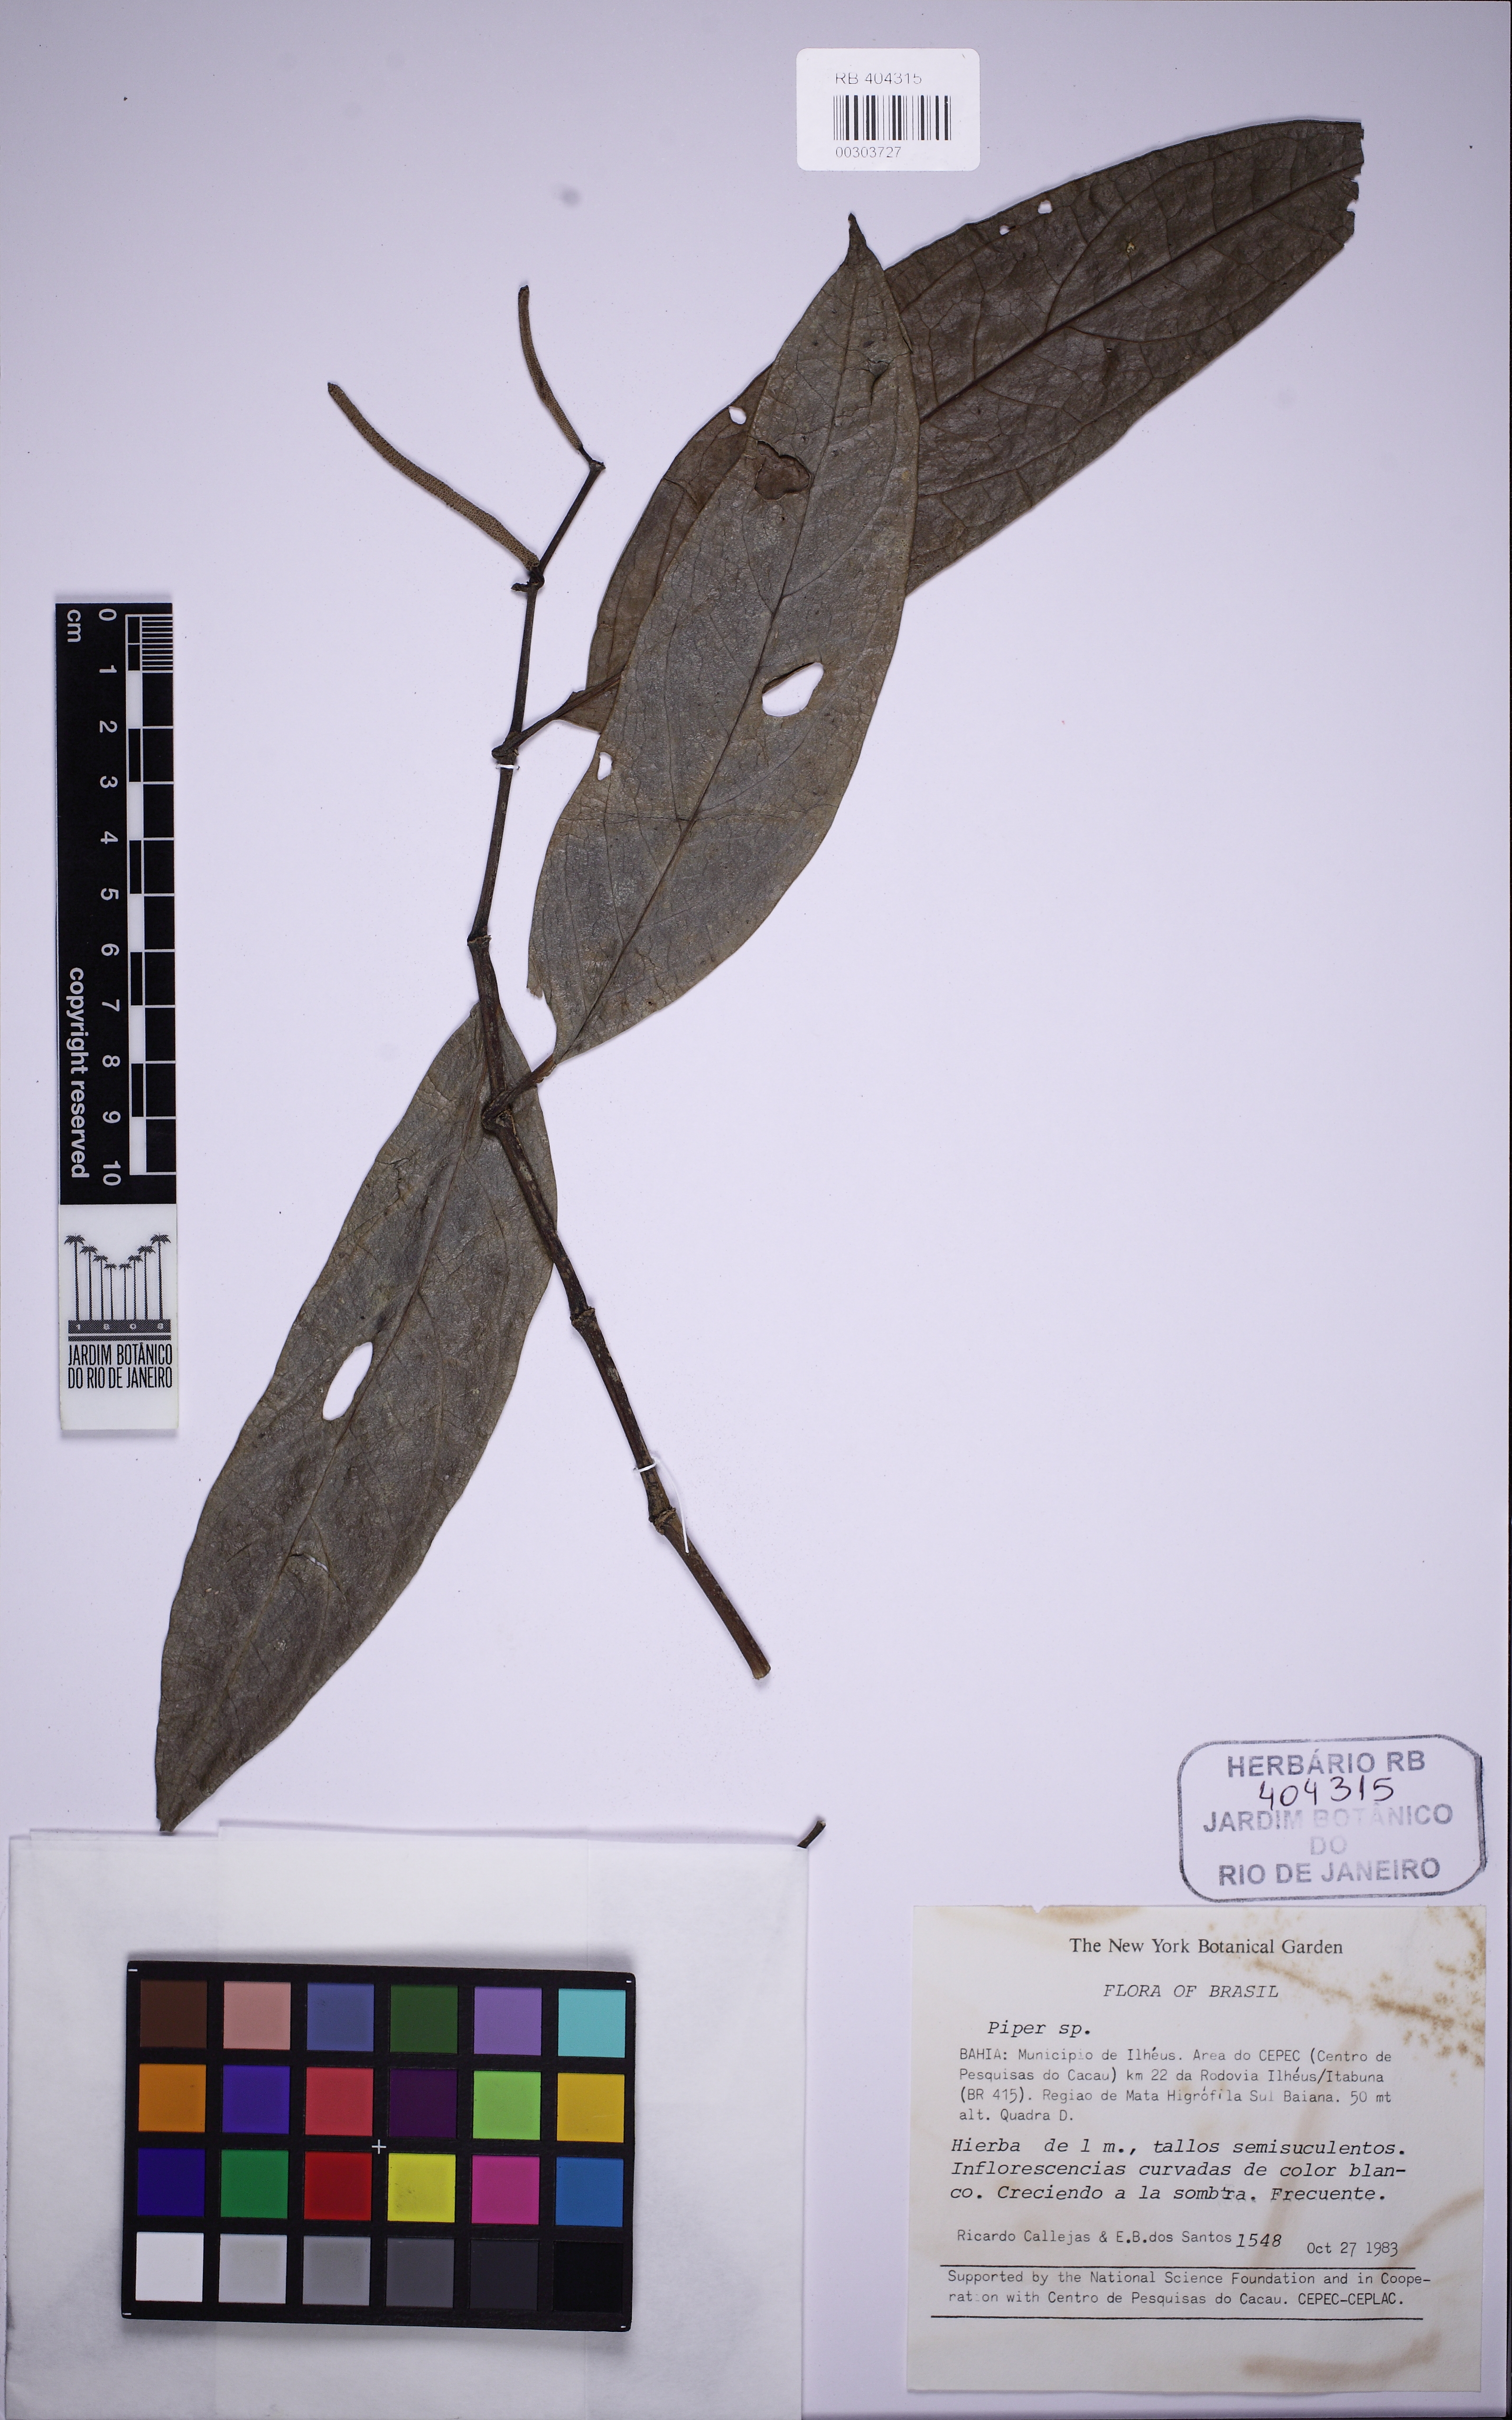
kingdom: Plantae
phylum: Tracheophyta
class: Magnoliopsida
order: Piperales
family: Piperaceae
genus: Piper
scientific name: Piper divaricatum
